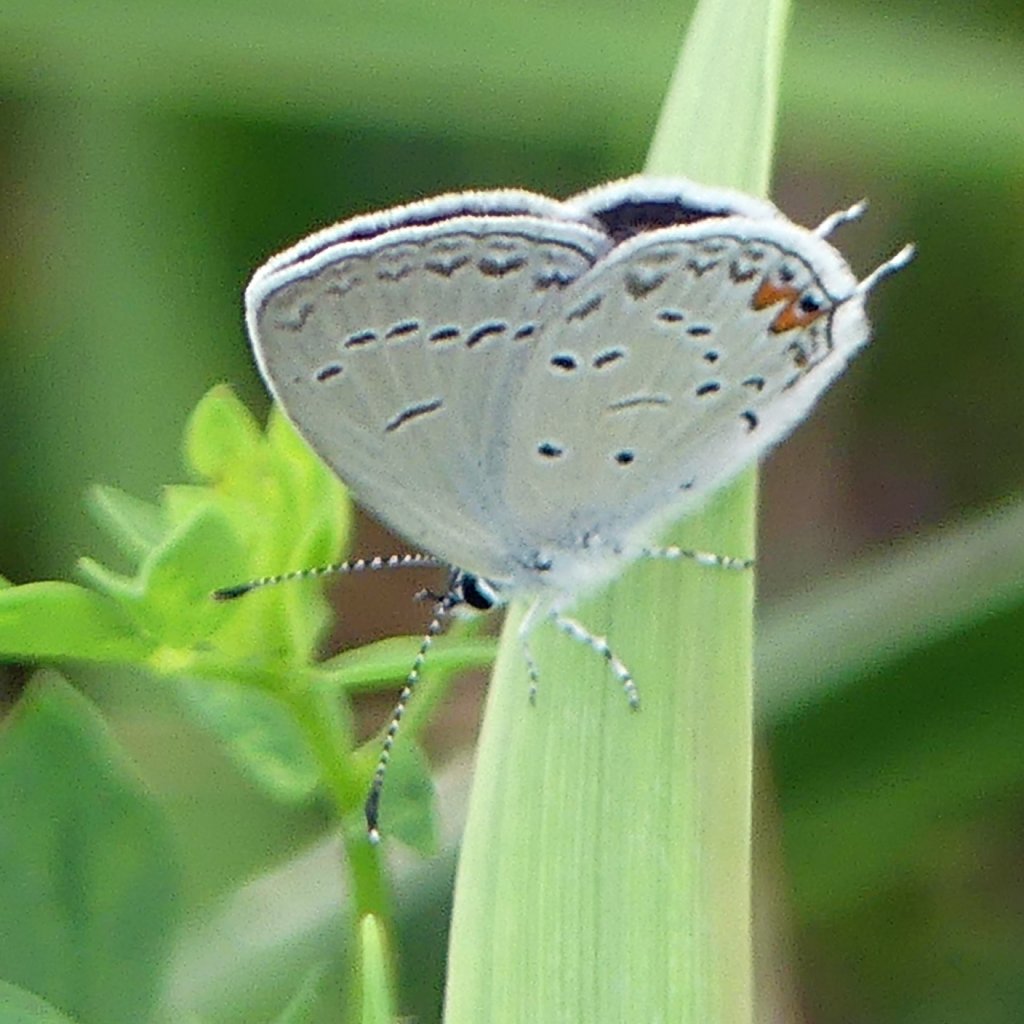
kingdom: Animalia
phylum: Arthropoda
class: Insecta
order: Lepidoptera
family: Lycaenidae
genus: Elkalyce
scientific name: Elkalyce comyntas
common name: Eastern Tailed-Blue
